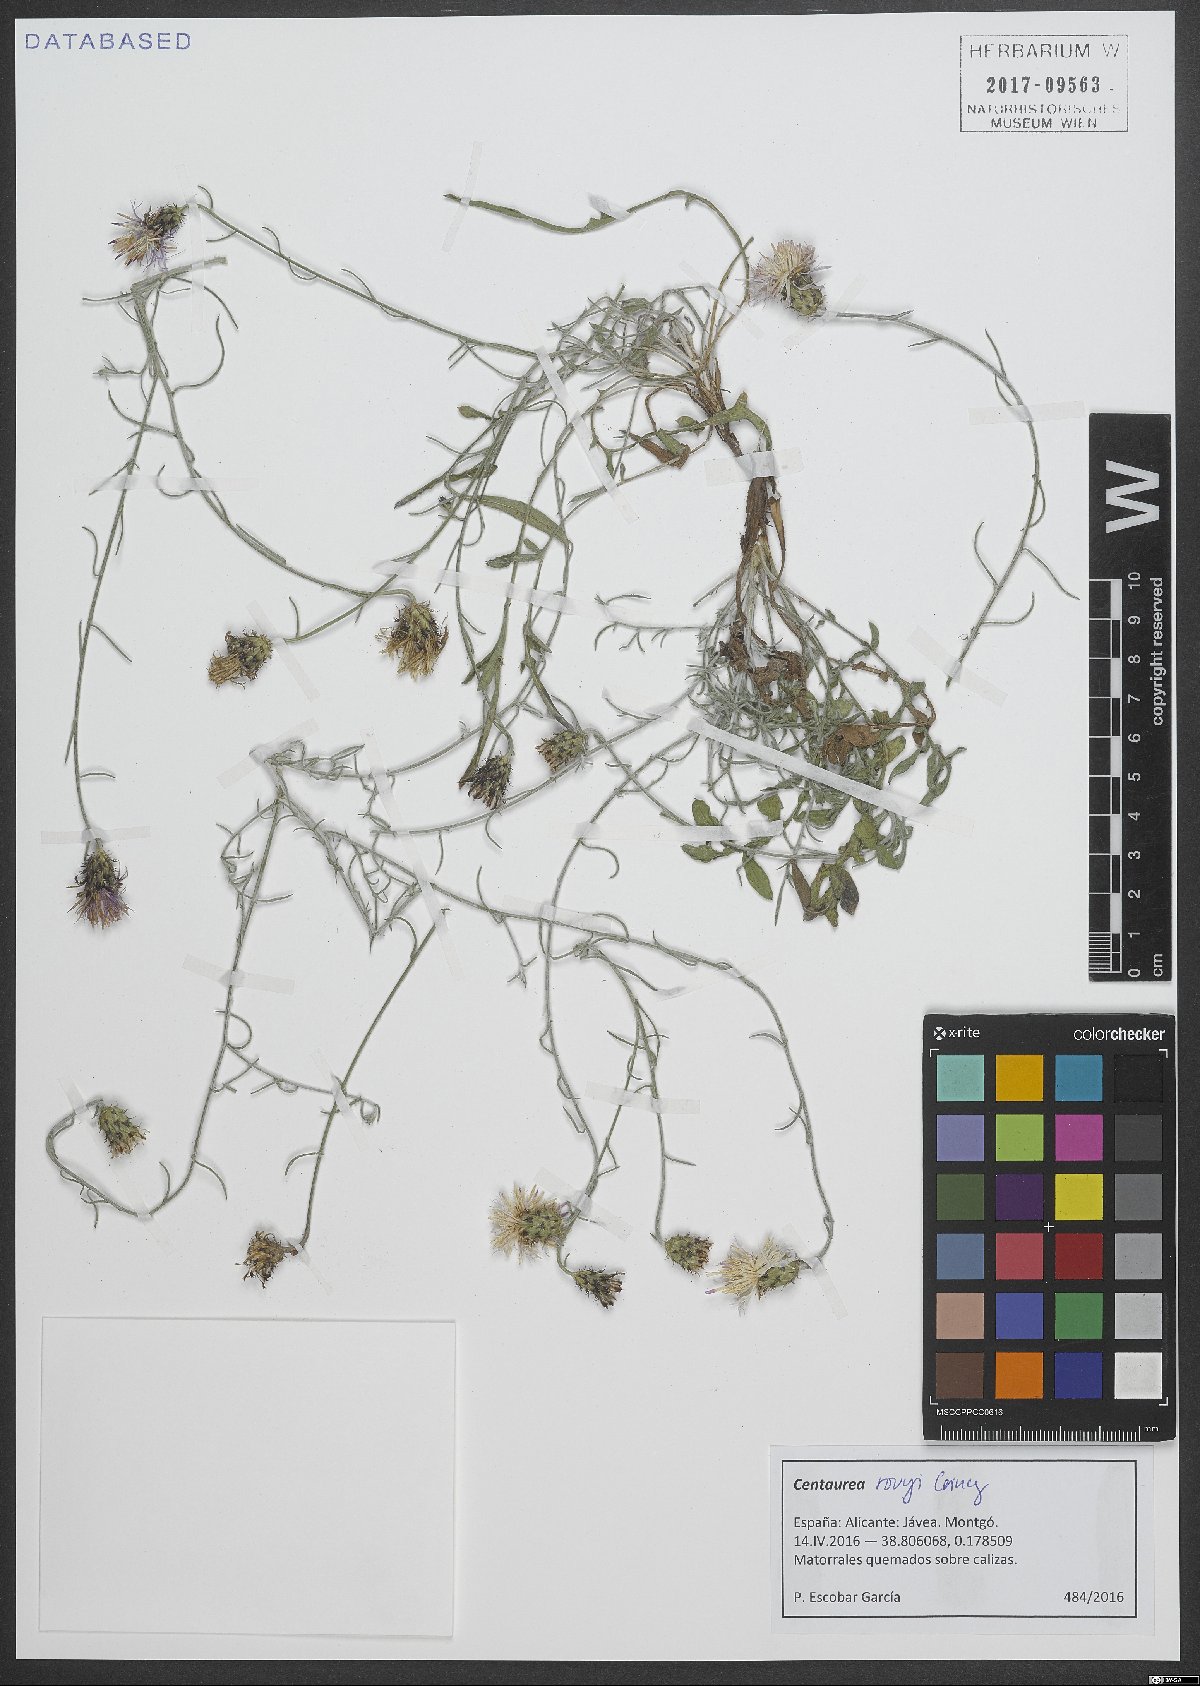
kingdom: Plantae
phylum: Tracheophyta
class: Magnoliopsida
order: Asterales
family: Asteraceae
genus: Centaurea
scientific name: Centaurea rouyi
